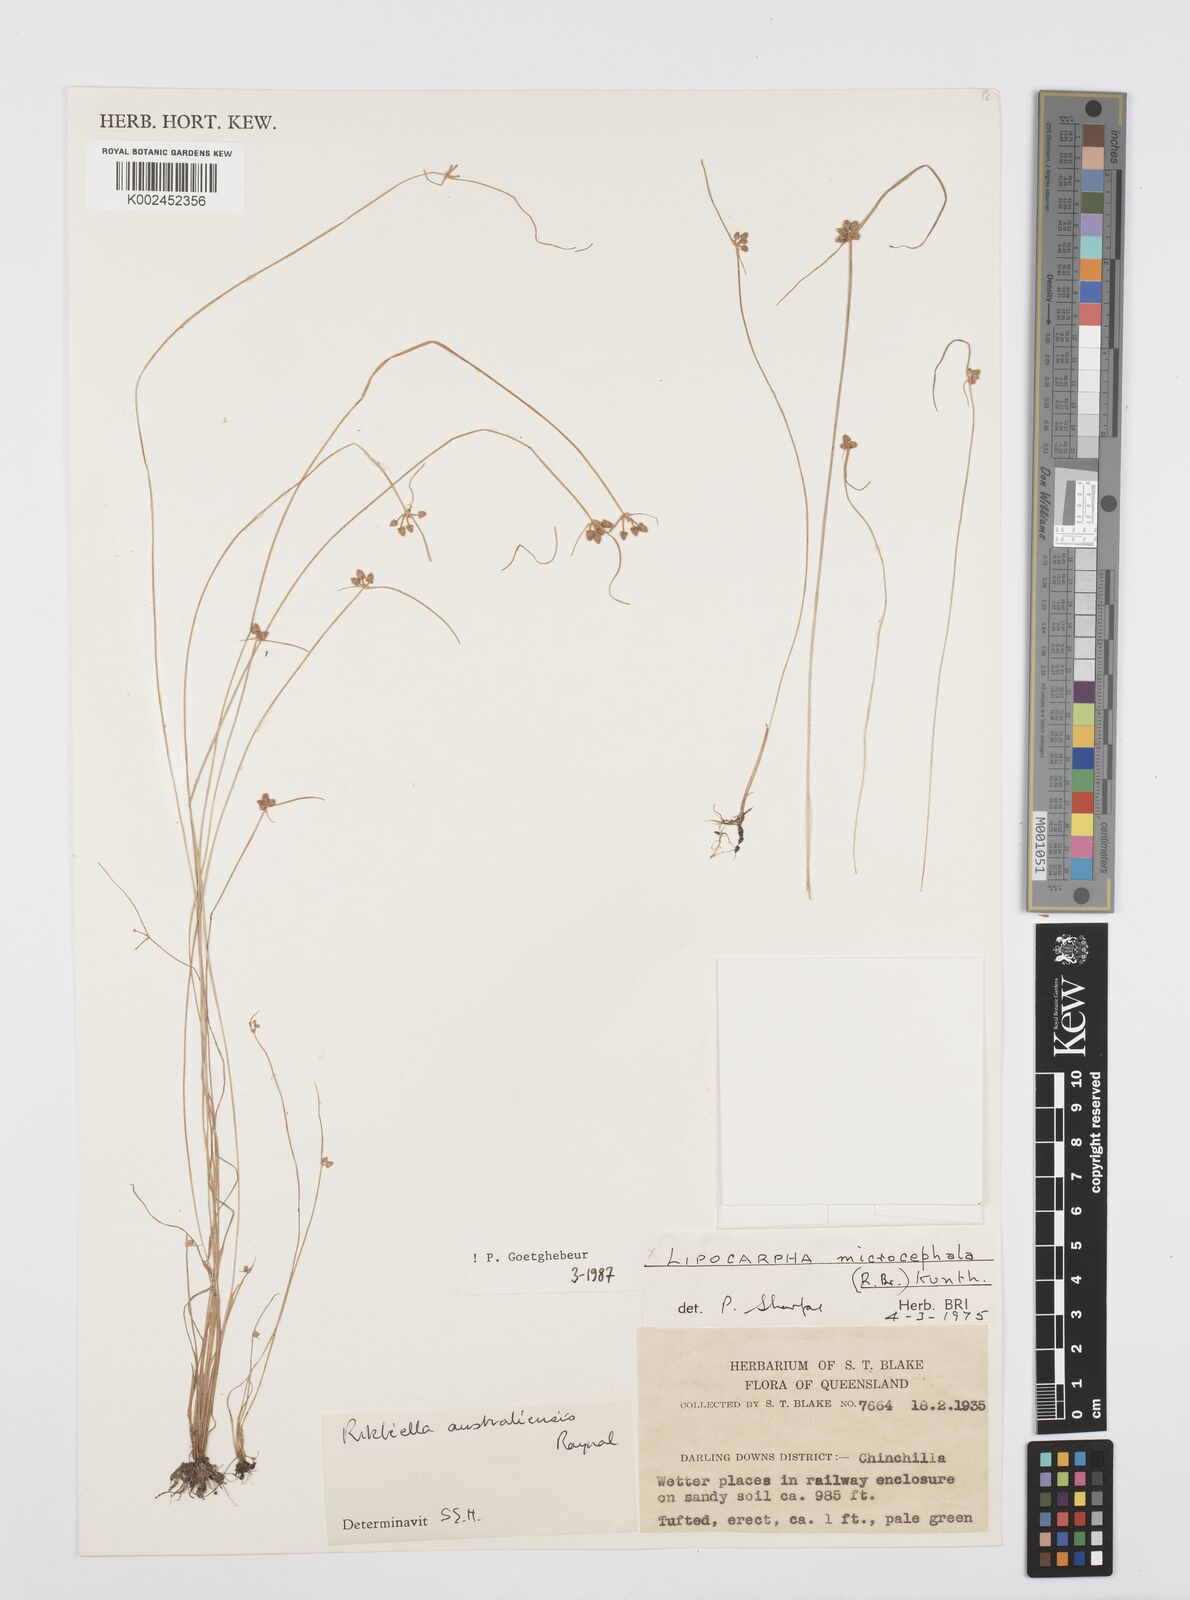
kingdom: Plantae
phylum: Tracheophyta
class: Liliopsida
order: Poales
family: Cyperaceae
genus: Cyperus
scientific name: Cyperus microcephalus
